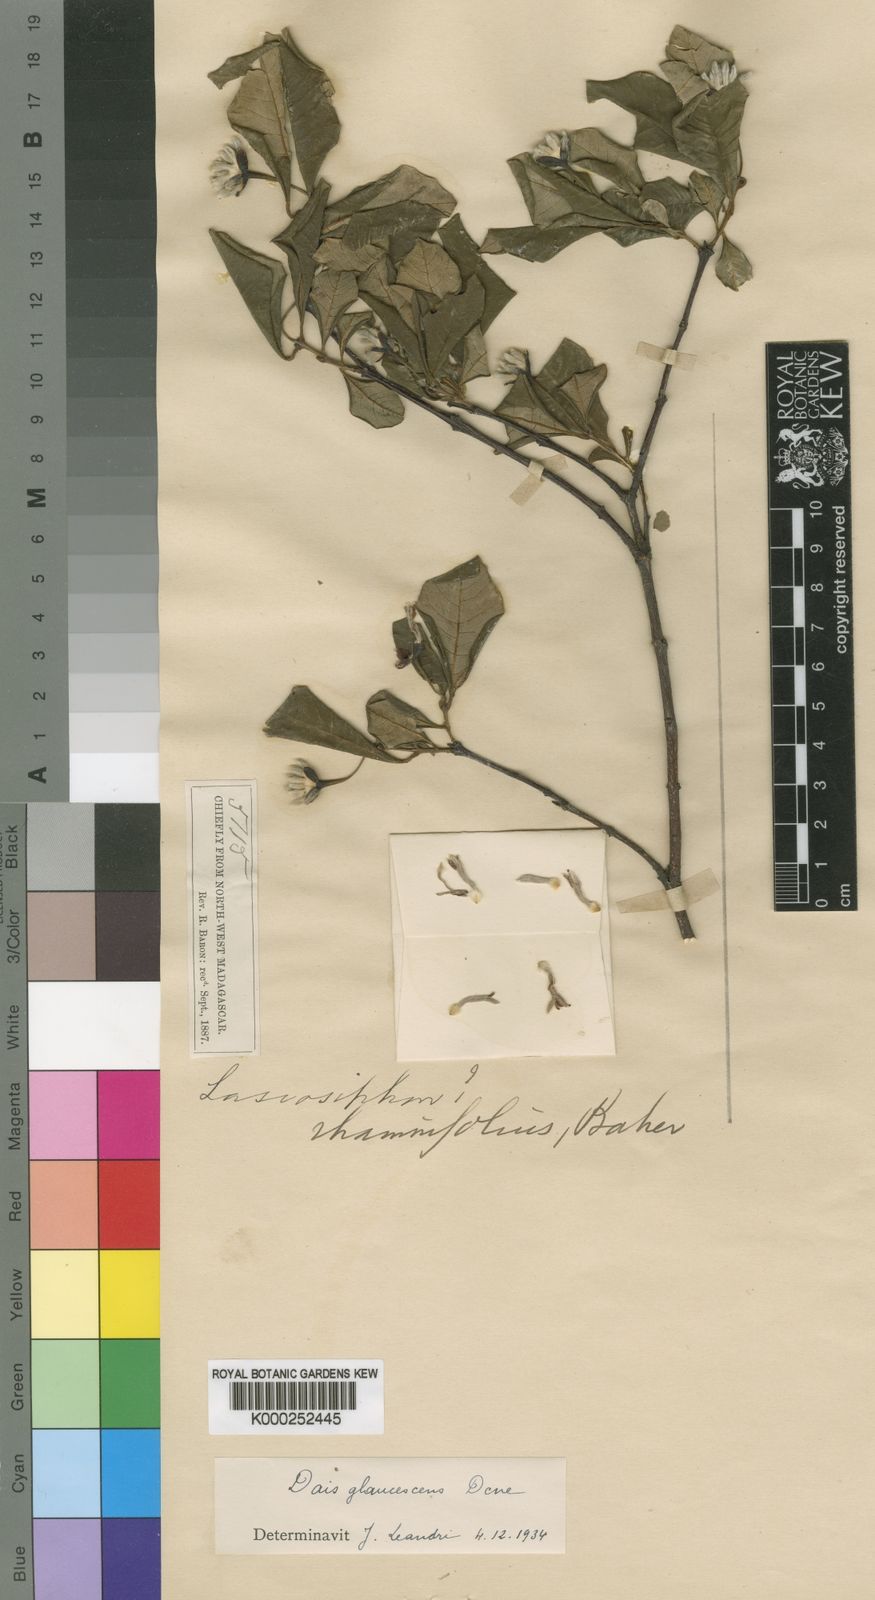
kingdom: Plantae
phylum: Tracheophyta
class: Magnoliopsida
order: Malvales
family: Thymelaeaceae
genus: Dais
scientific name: Dais glaucescens
